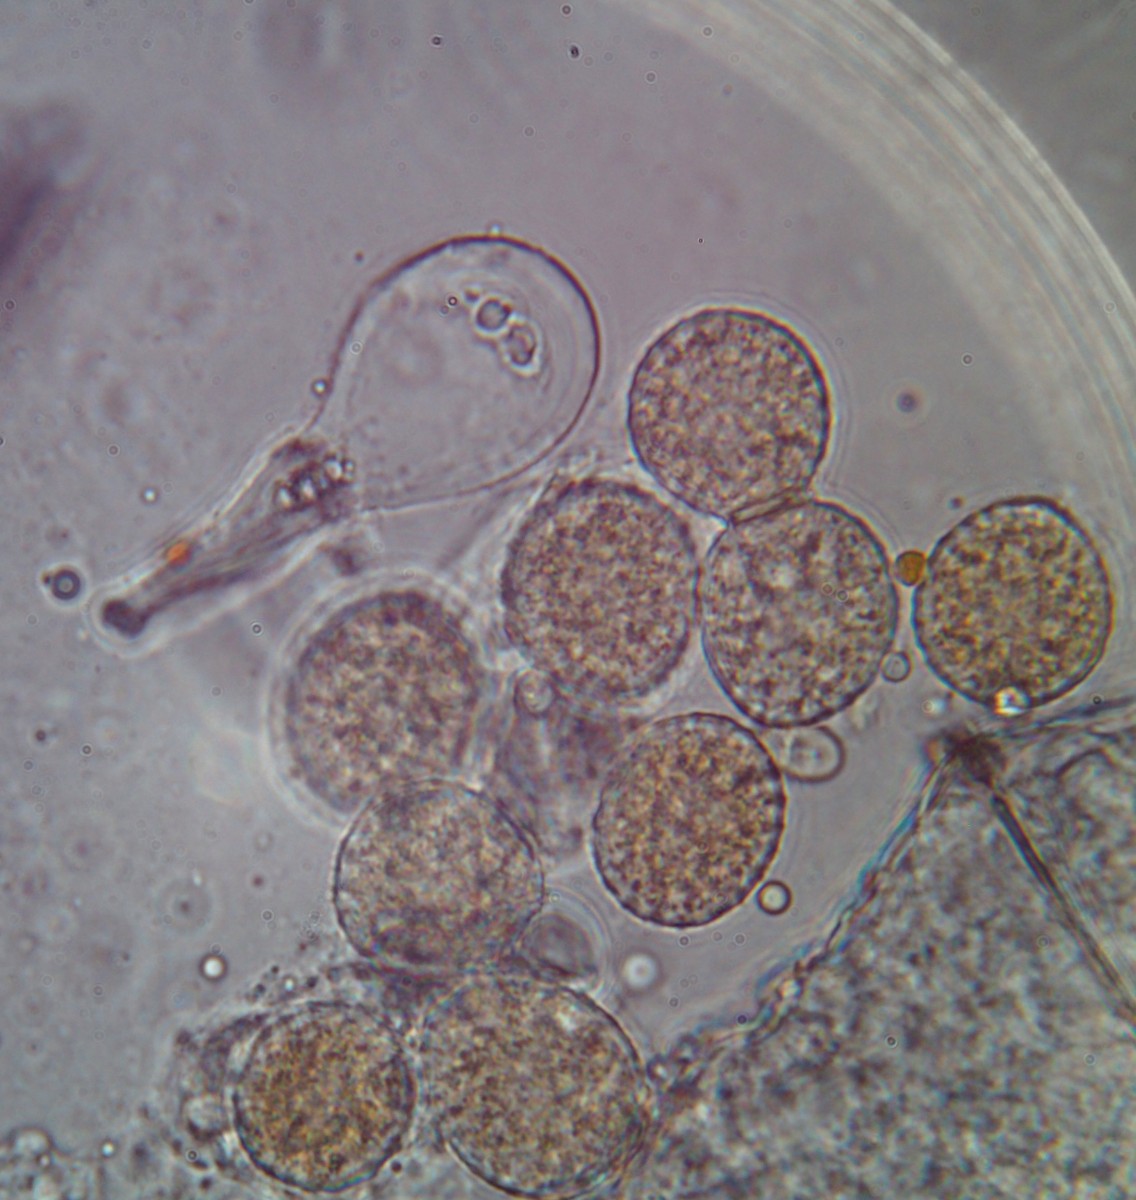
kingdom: Fungi
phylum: Basidiomycota
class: Pucciniomycetes
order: Pucciniales
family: Melampsoraceae
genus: Melampsora
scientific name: Melampsora caprearum
